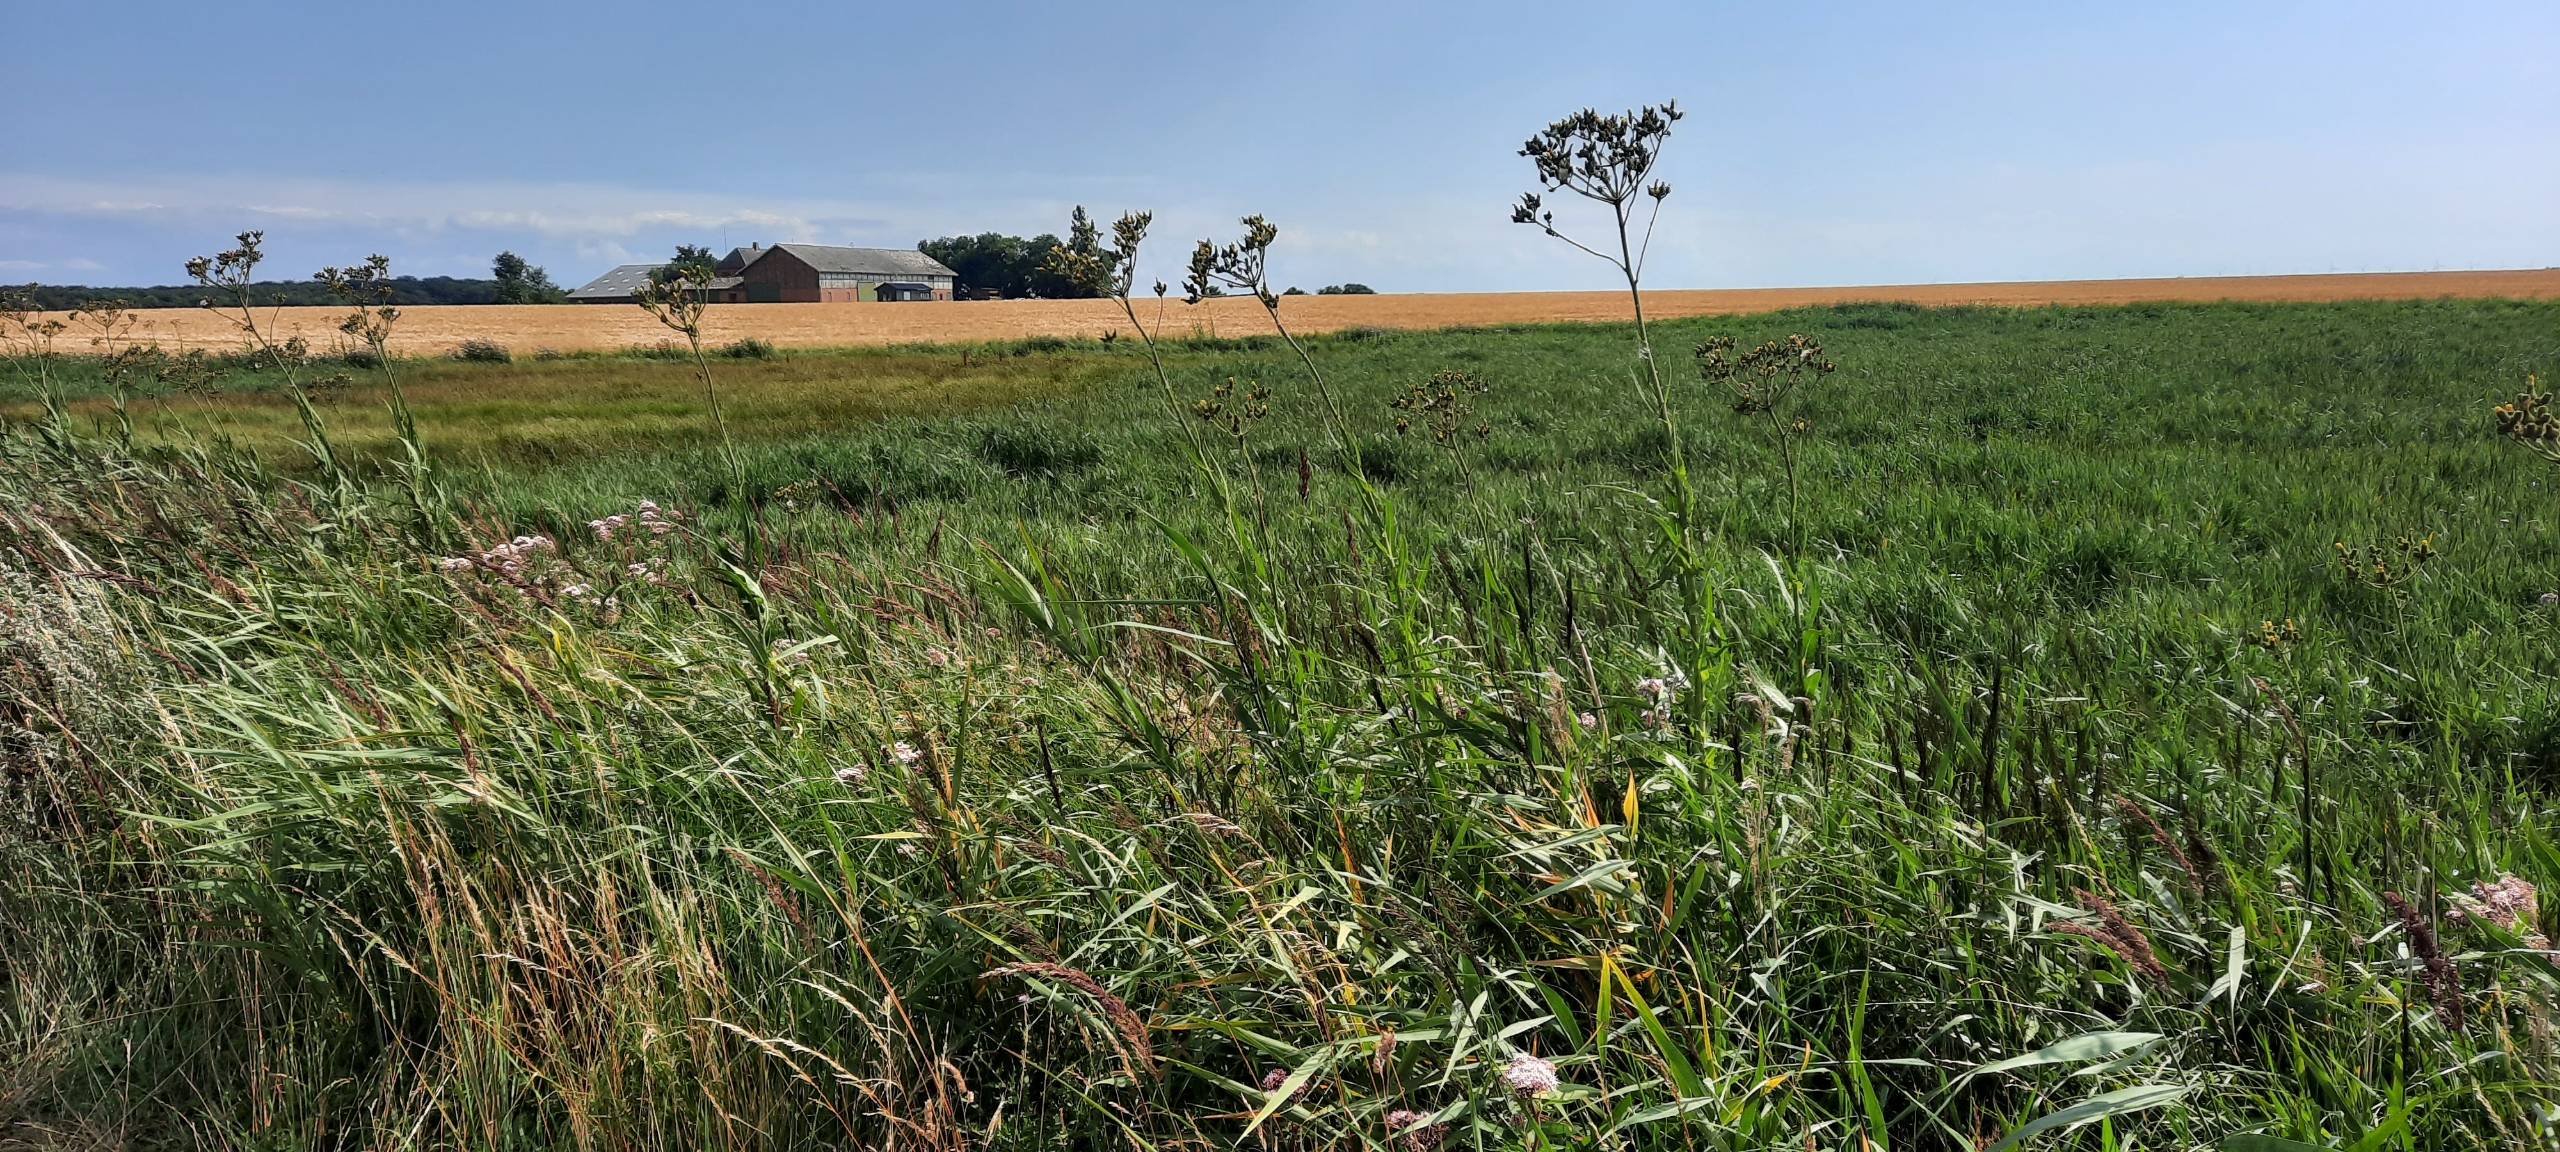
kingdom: Plantae
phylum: Tracheophyta
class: Magnoliopsida
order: Asterales
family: Asteraceae
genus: Sonchus
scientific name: Sonchus palustris
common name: Kær-svinemælk
